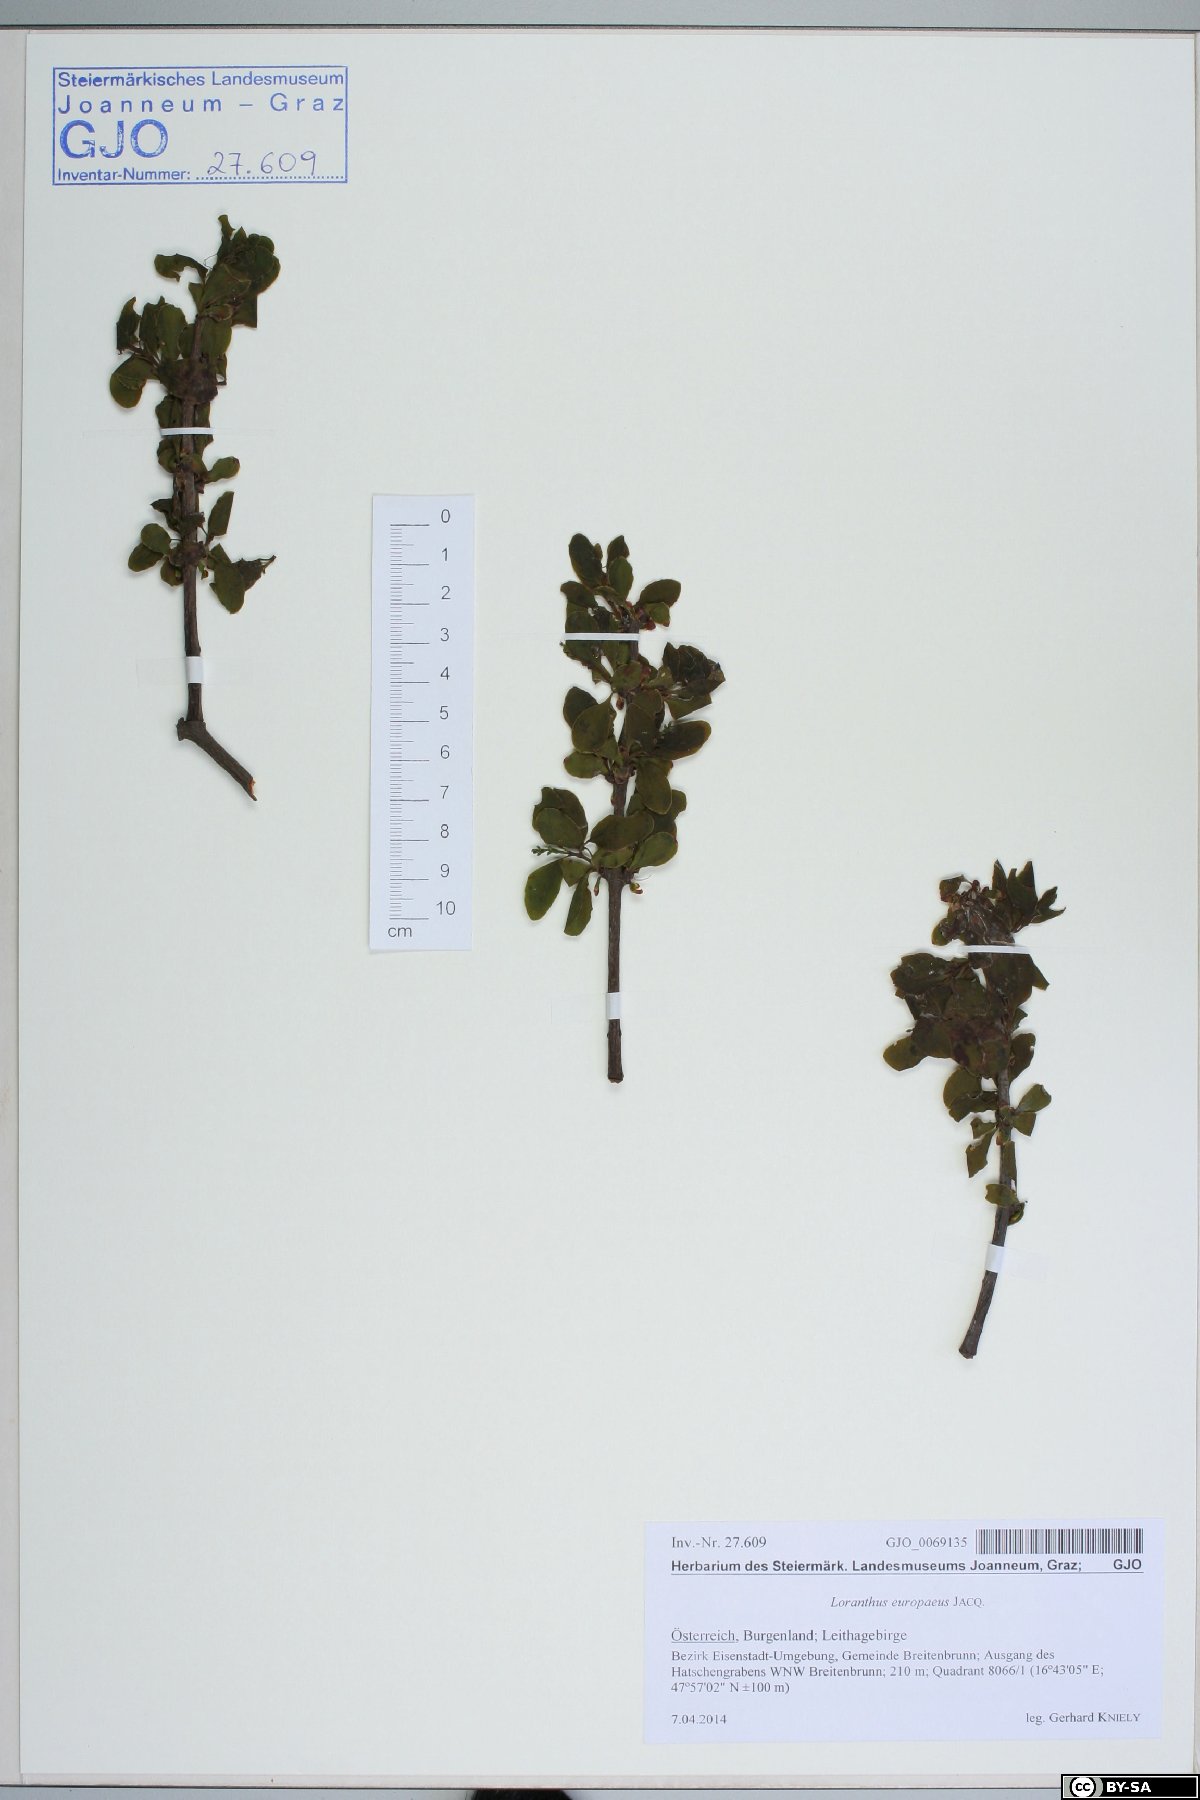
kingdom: Plantae
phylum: Tracheophyta
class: Magnoliopsida
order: Santalales
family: Loranthaceae
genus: Loranthus
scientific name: Loranthus europaeus
